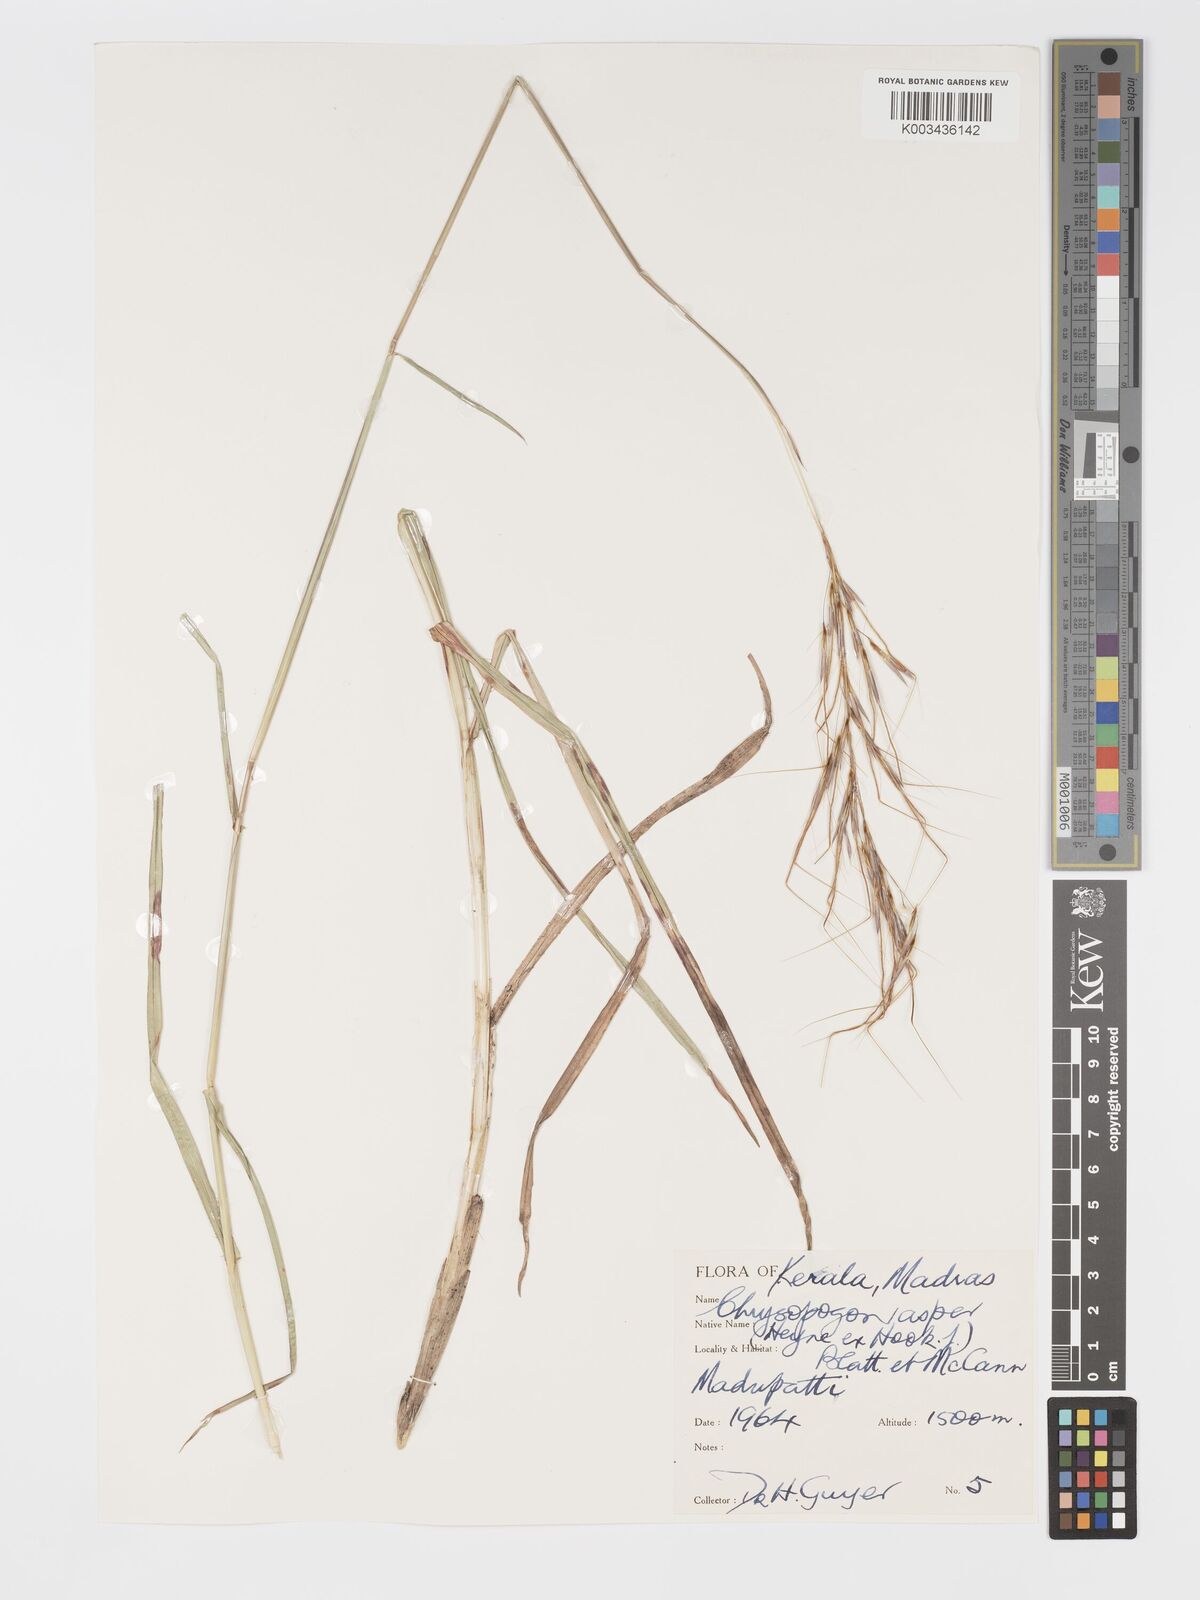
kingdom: Plantae
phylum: Tracheophyta
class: Liliopsida
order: Poales
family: Poaceae
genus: Chrysopogon
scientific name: Chrysopogon asper
